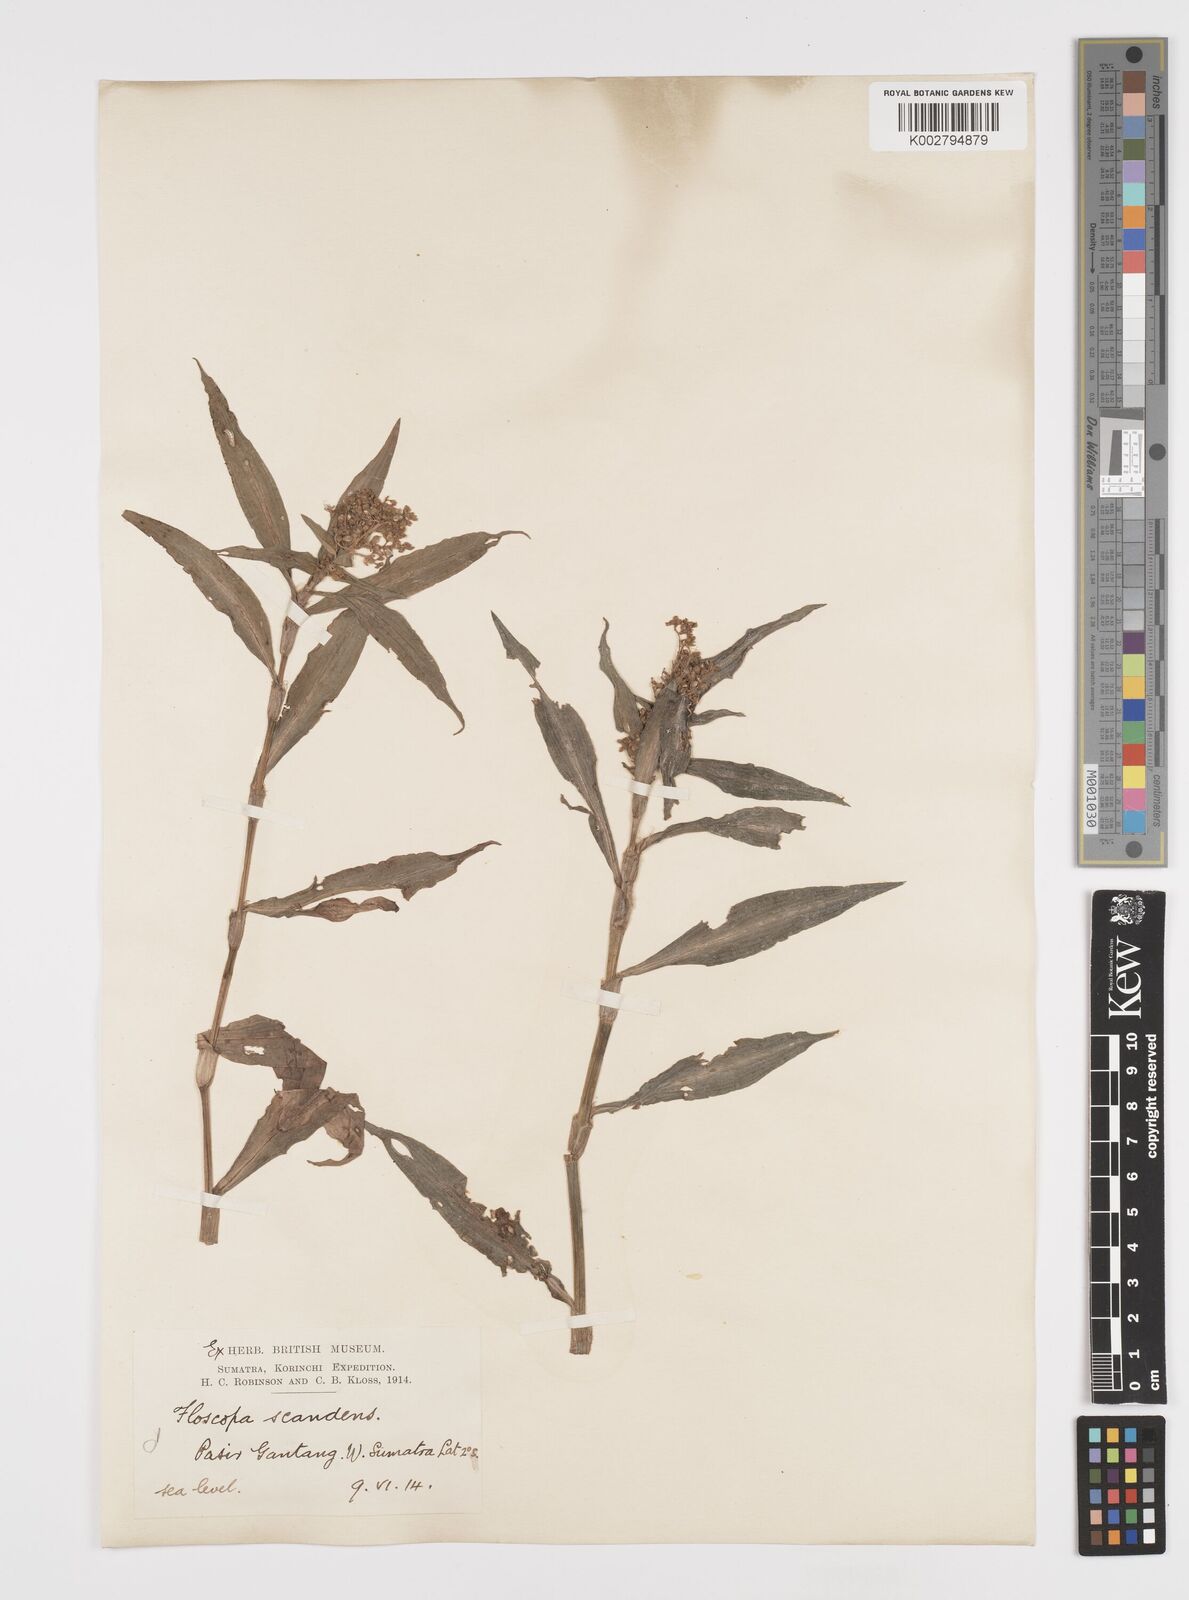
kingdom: Plantae
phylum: Tracheophyta
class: Liliopsida
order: Commelinales
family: Commelinaceae
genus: Floscopa
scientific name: Floscopa scandens
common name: Climbing flower cup
